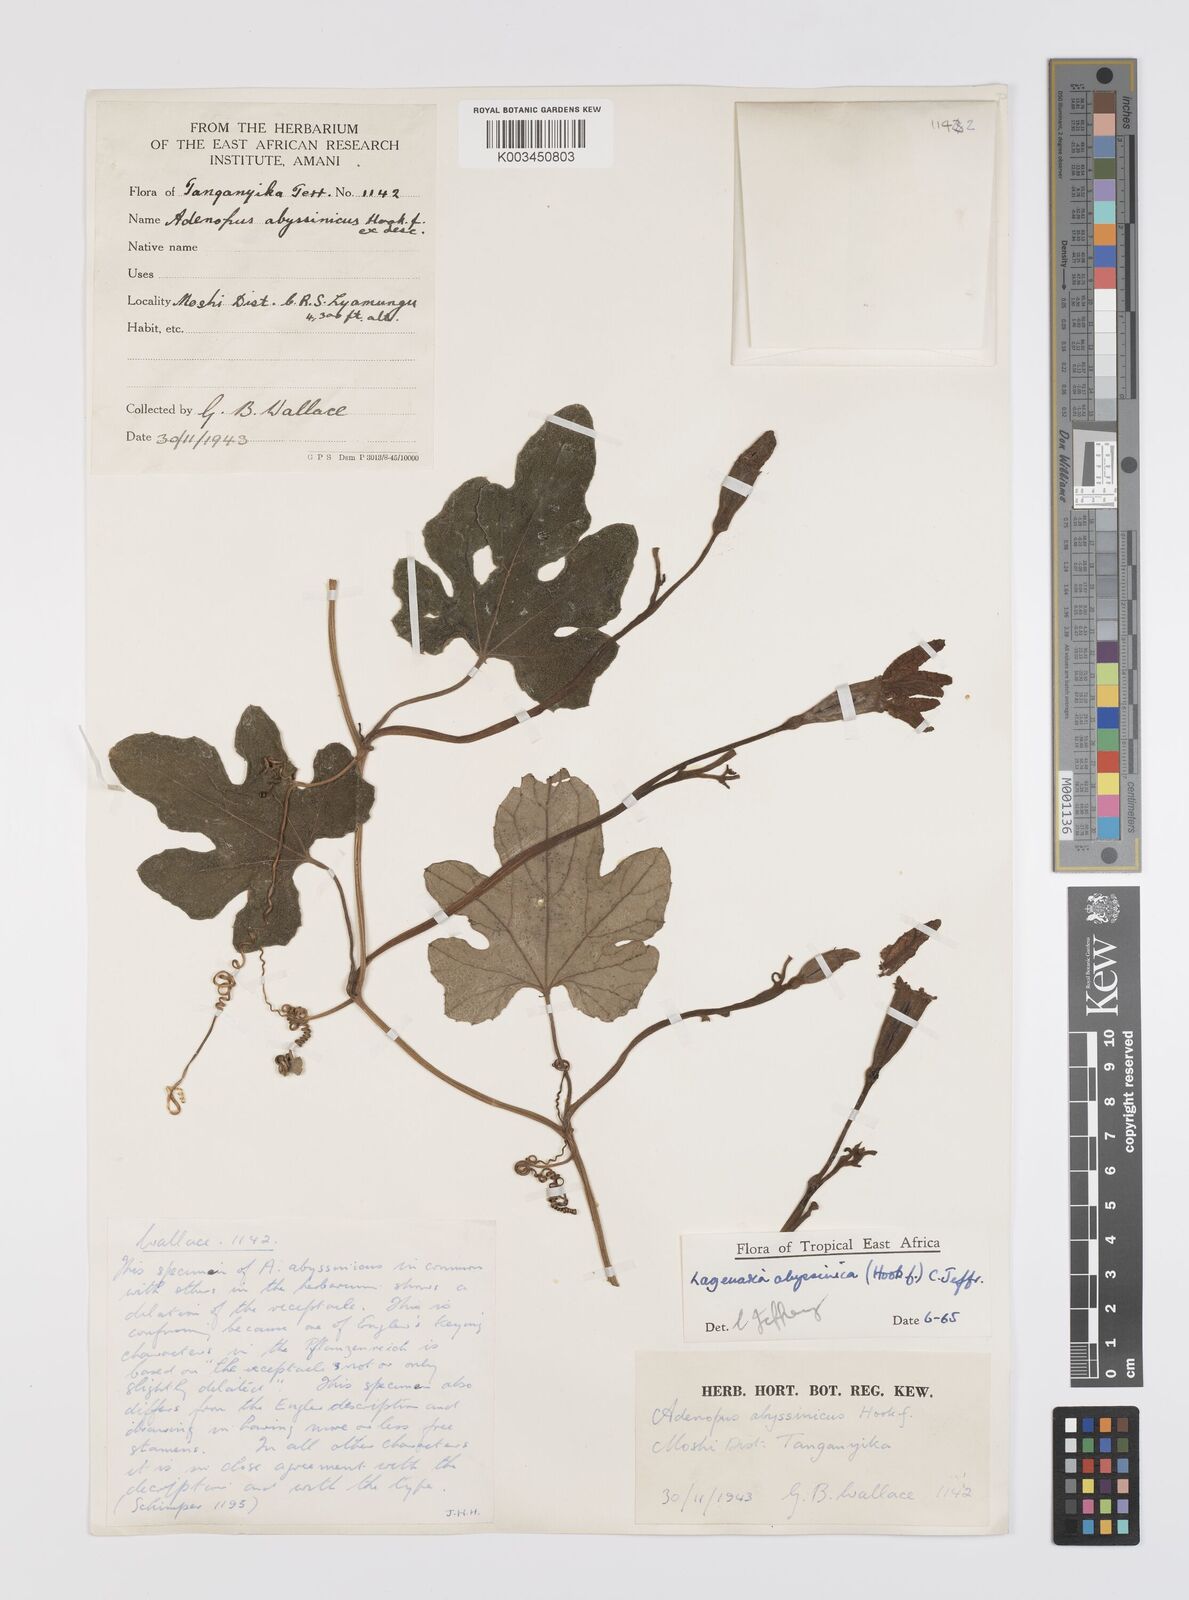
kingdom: Plantae
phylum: Tracheophyta
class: Magnoliopsida
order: Cucurbitales
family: Cucurbitaceae
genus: Lagenaria
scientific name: Lagenaria abyssinica
